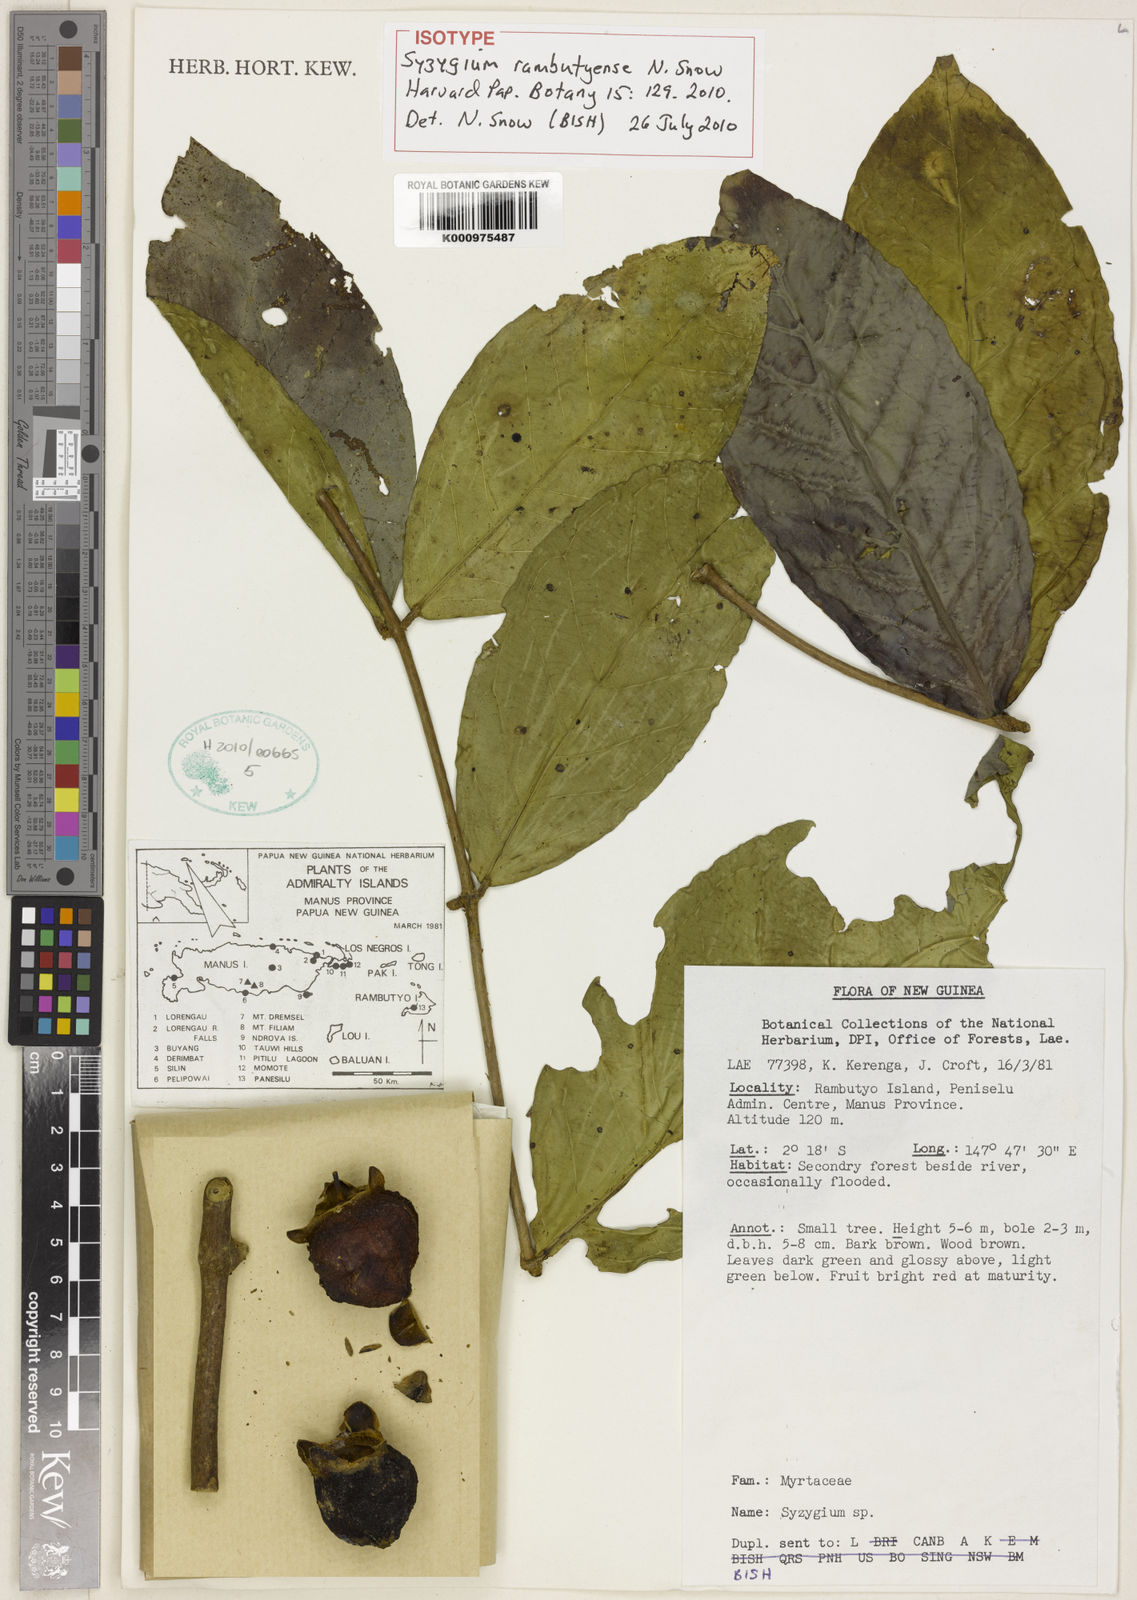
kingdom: Plantae
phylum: Tracheophyta
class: Magnoliopsida
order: Myrtales
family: Myrtaceae
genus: Syzygium
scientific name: Syzygium rambutyense
